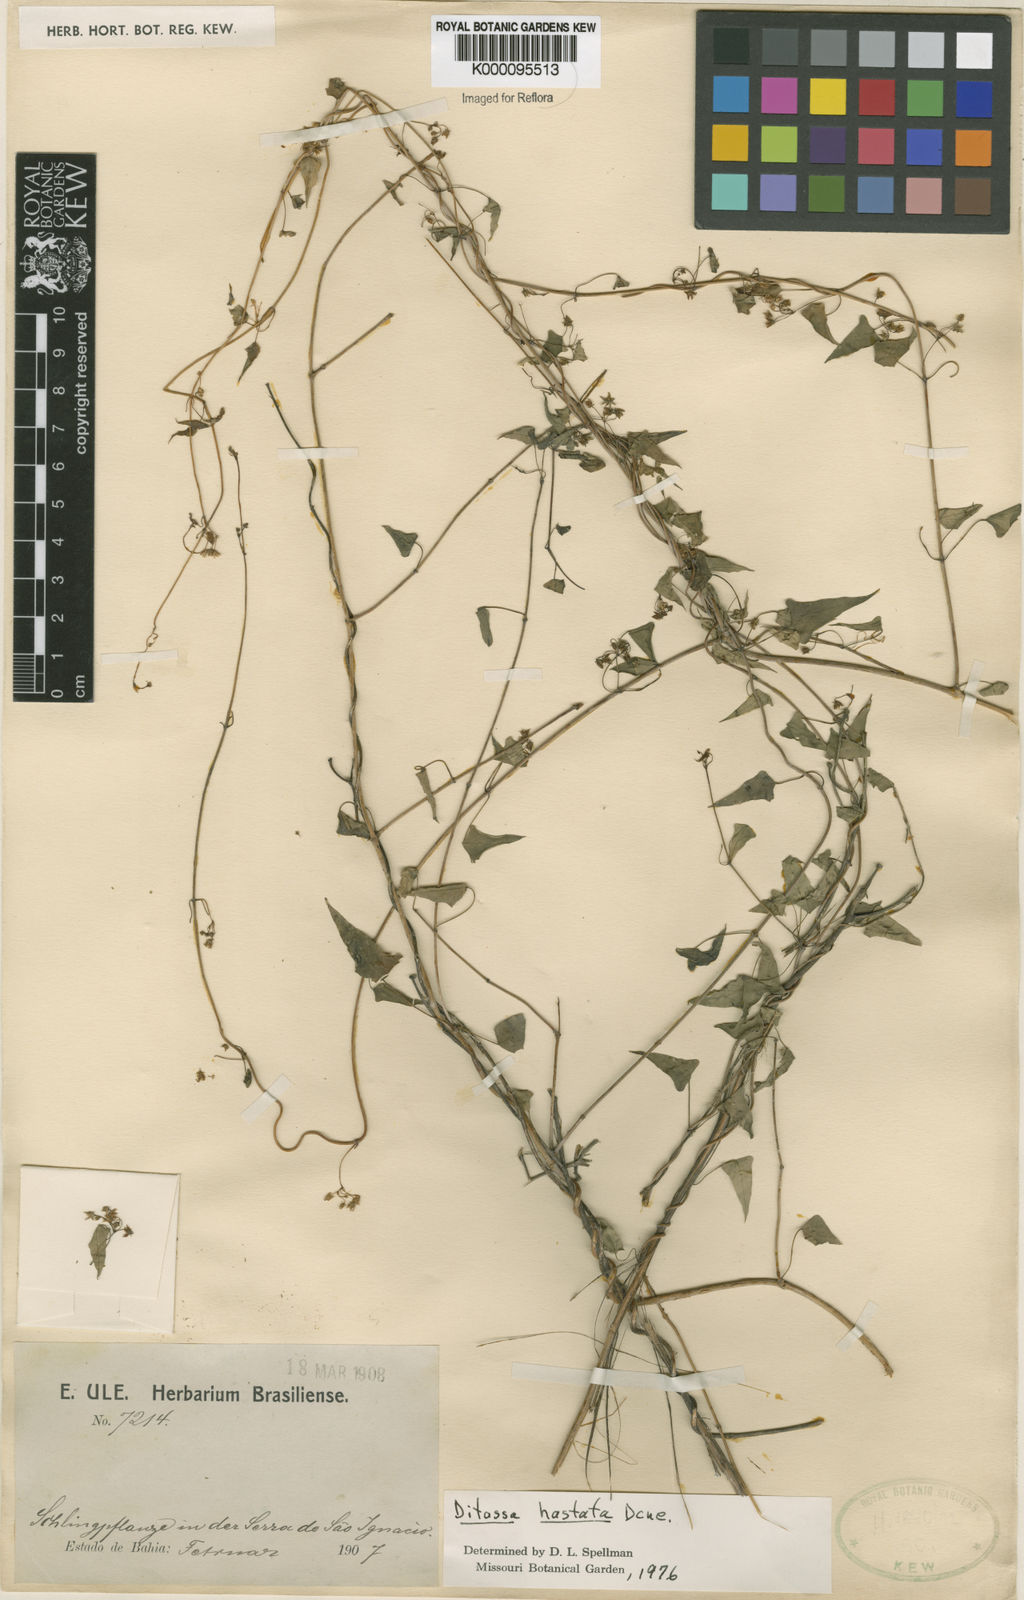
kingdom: Plantae
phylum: Tracheophyta
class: Magnoliopsida
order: Gentianales
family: Apocynaceae
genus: Ditassa
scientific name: Ditassa hastata
